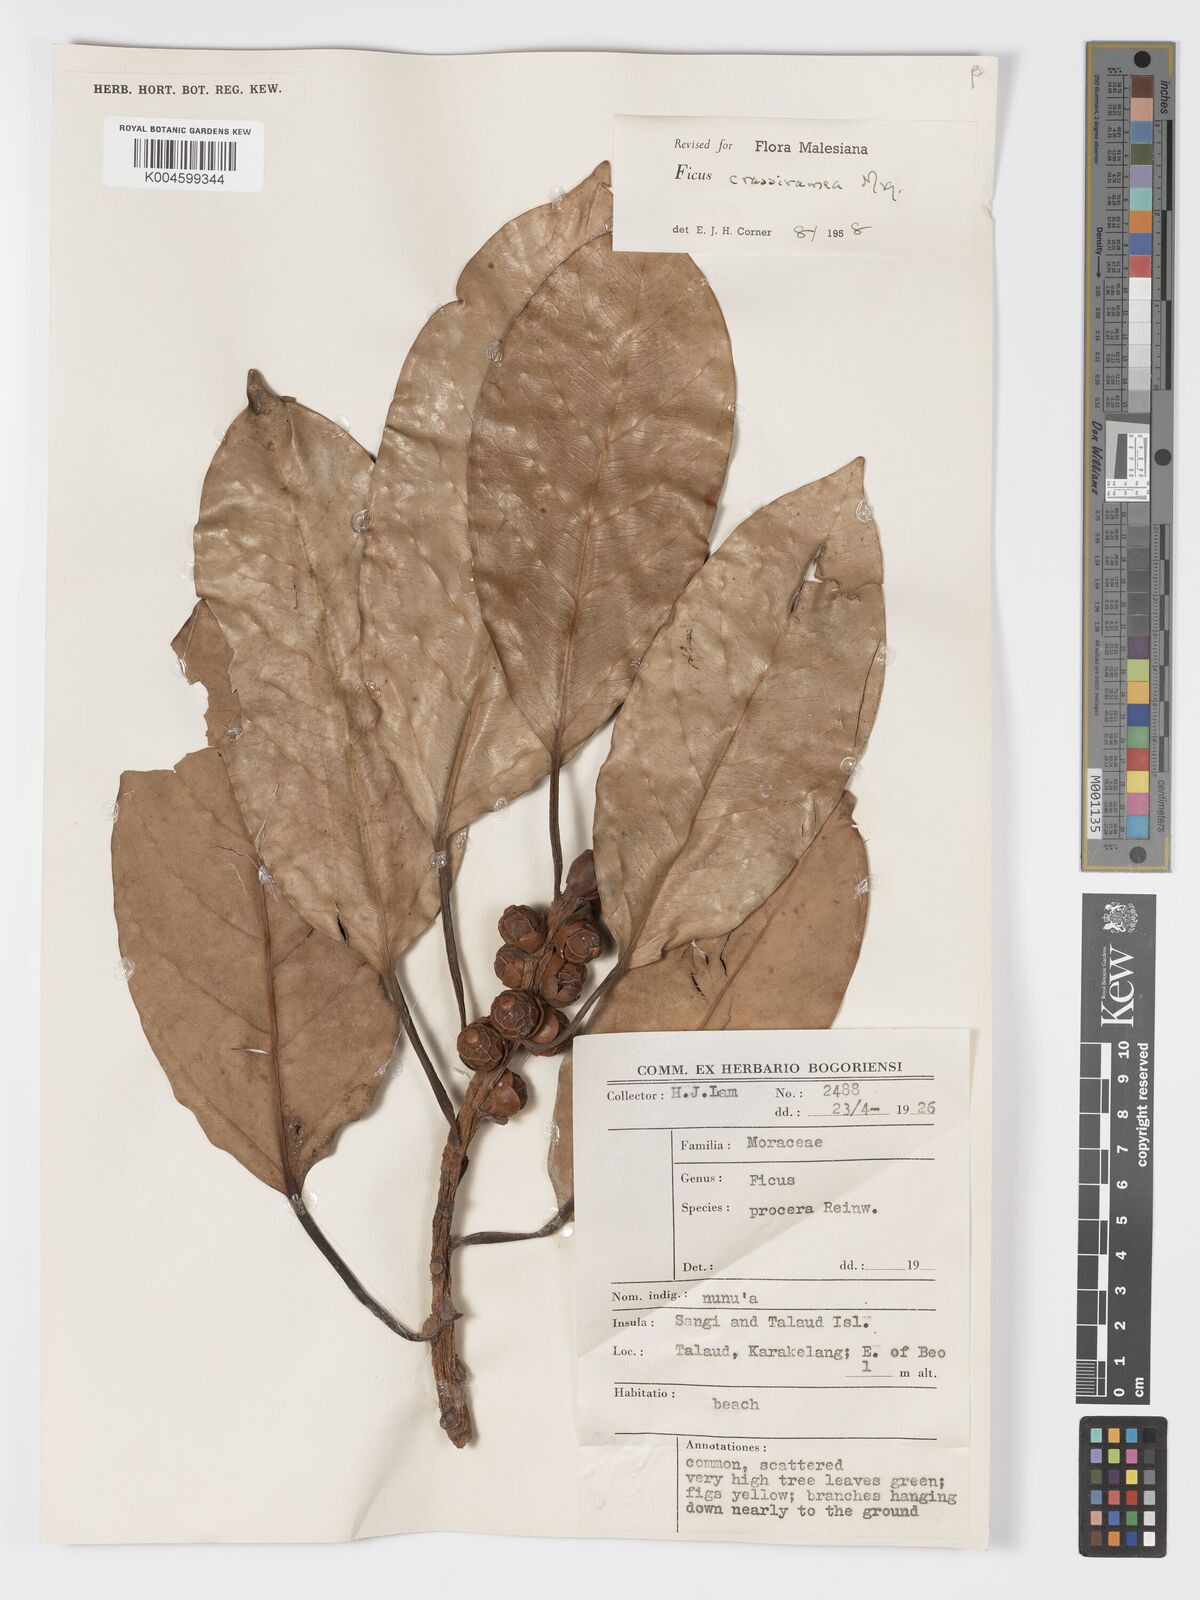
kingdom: Plantae
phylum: Tracheophyta
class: Magnoliopsida
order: Rosales
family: Moraceae
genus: Ficus
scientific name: Ficus crassiramea
